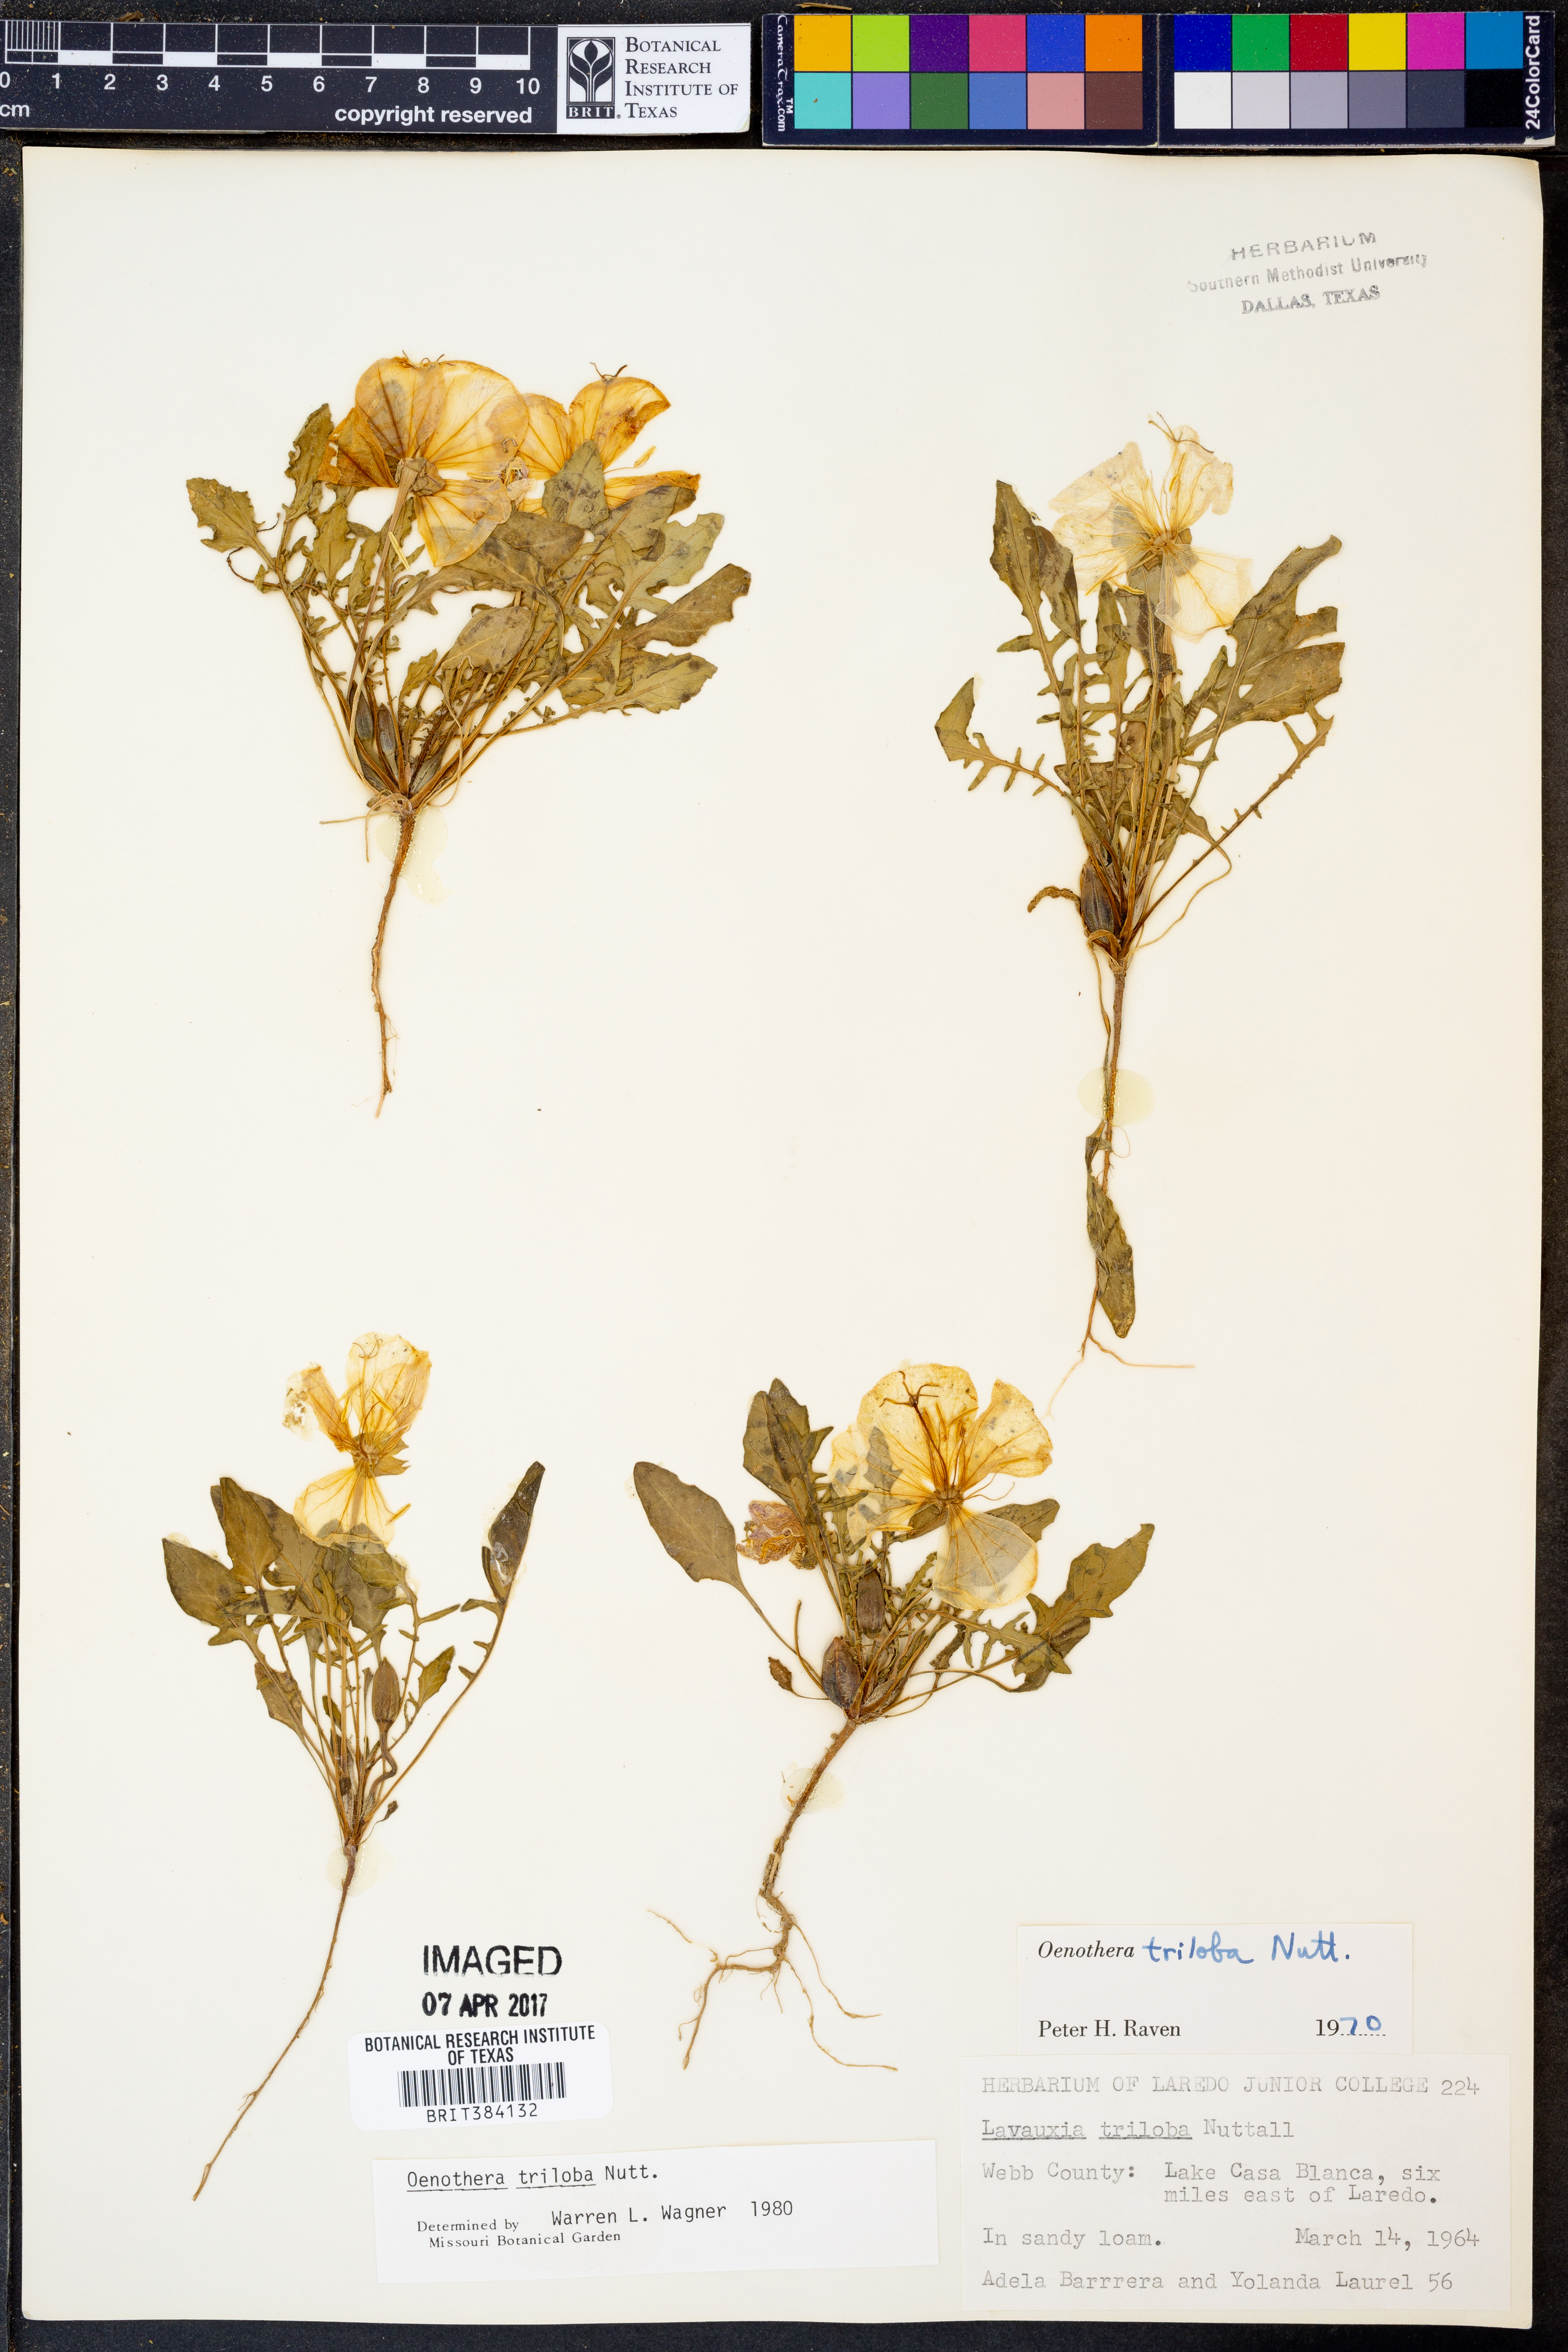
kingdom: Plantae
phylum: Tracheophyta
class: Magnoliopsida
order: Myrtales
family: Onagraceae
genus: Oenothera
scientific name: Oenothera triloba
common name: Sessile evening-primrose
